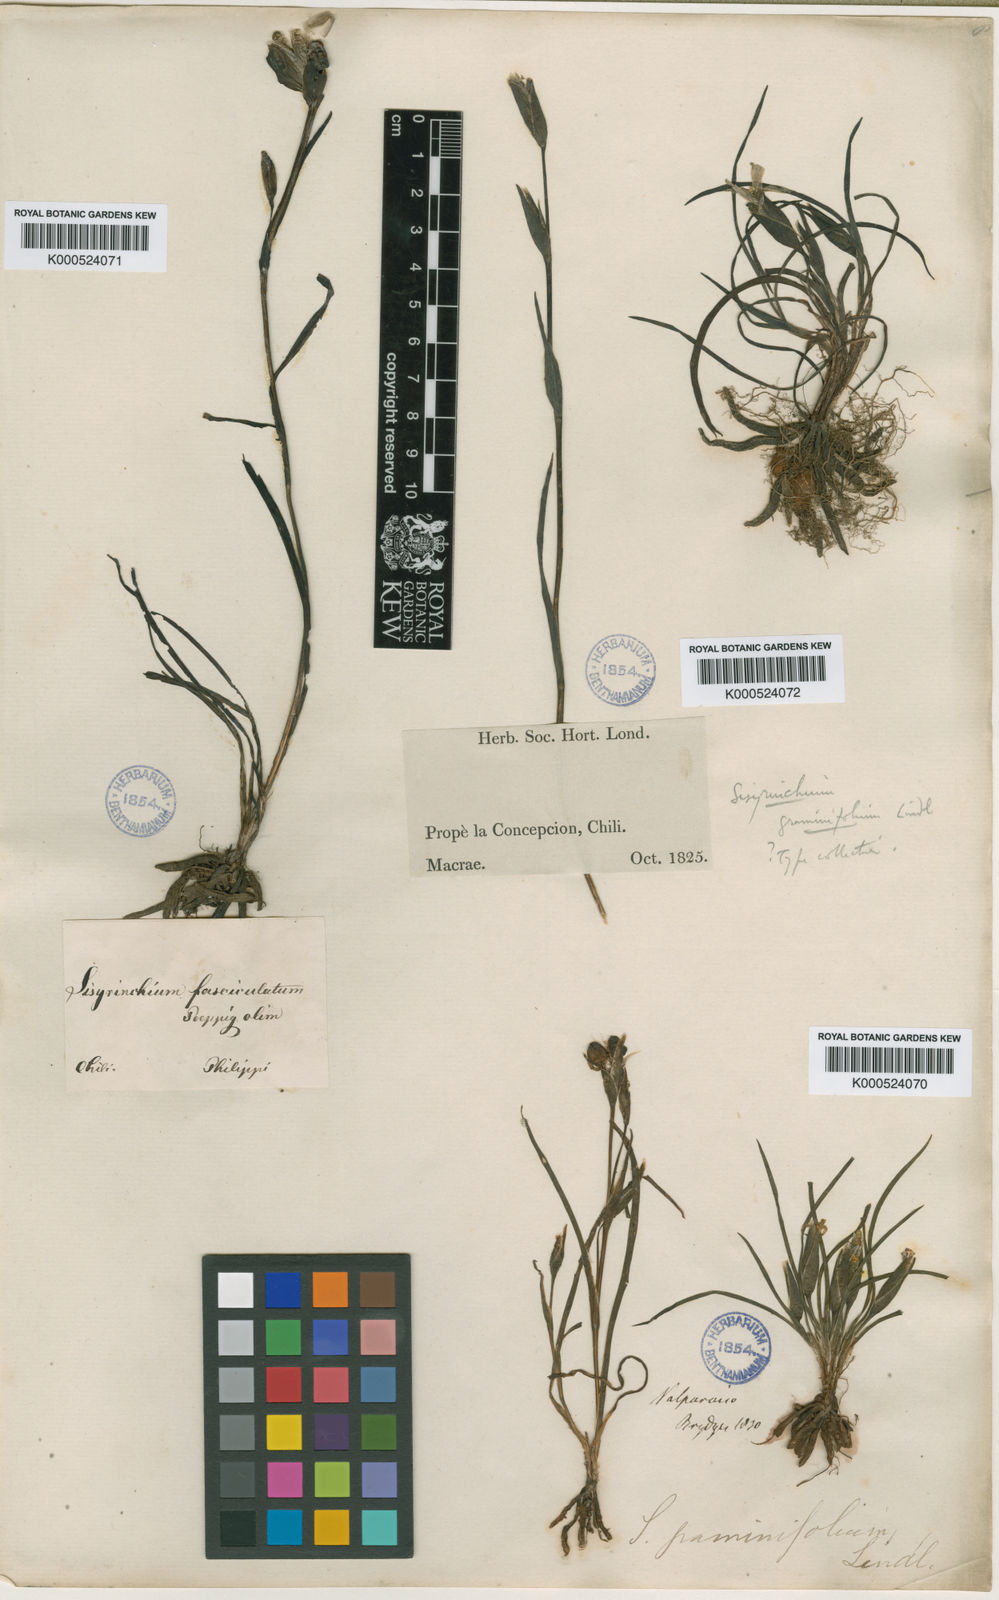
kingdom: Plantae
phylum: Tracheophyta
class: Liliopsida
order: Asparagales
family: Iridaceae
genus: Sisyrinchium
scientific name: Sisyrinchium graminifolium
